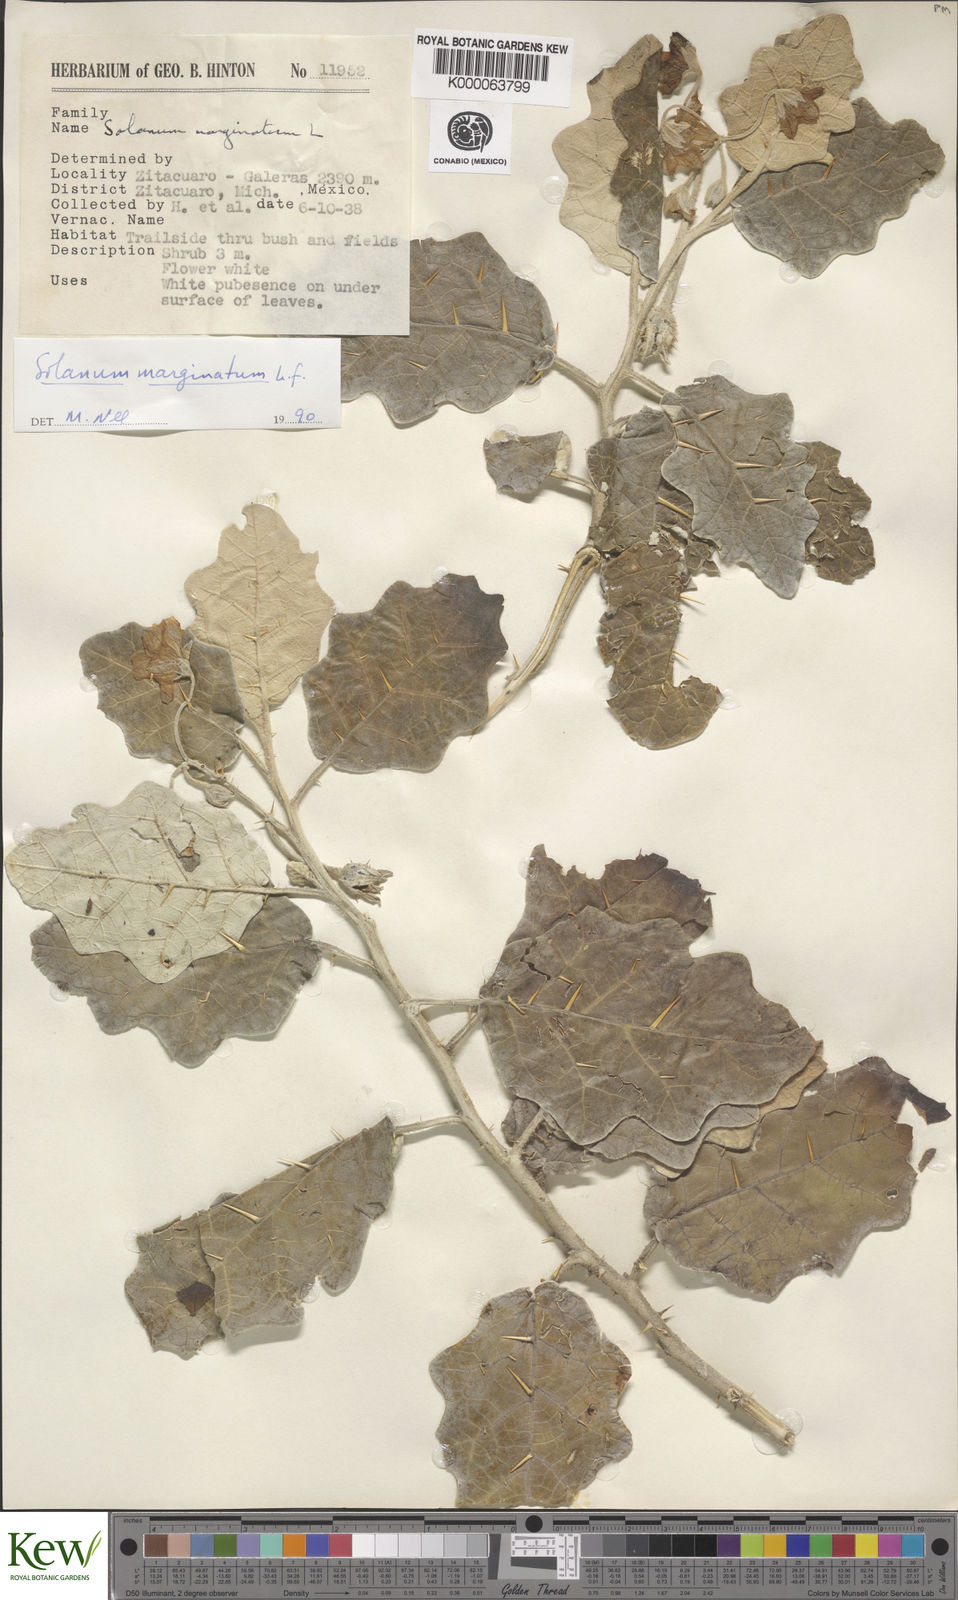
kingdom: Plantae
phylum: Tracheophyta
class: Magnoliopsida
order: Solanales
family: Solanaceae
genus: Solanum
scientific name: Solanum marginatum
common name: Purple african nightshade
